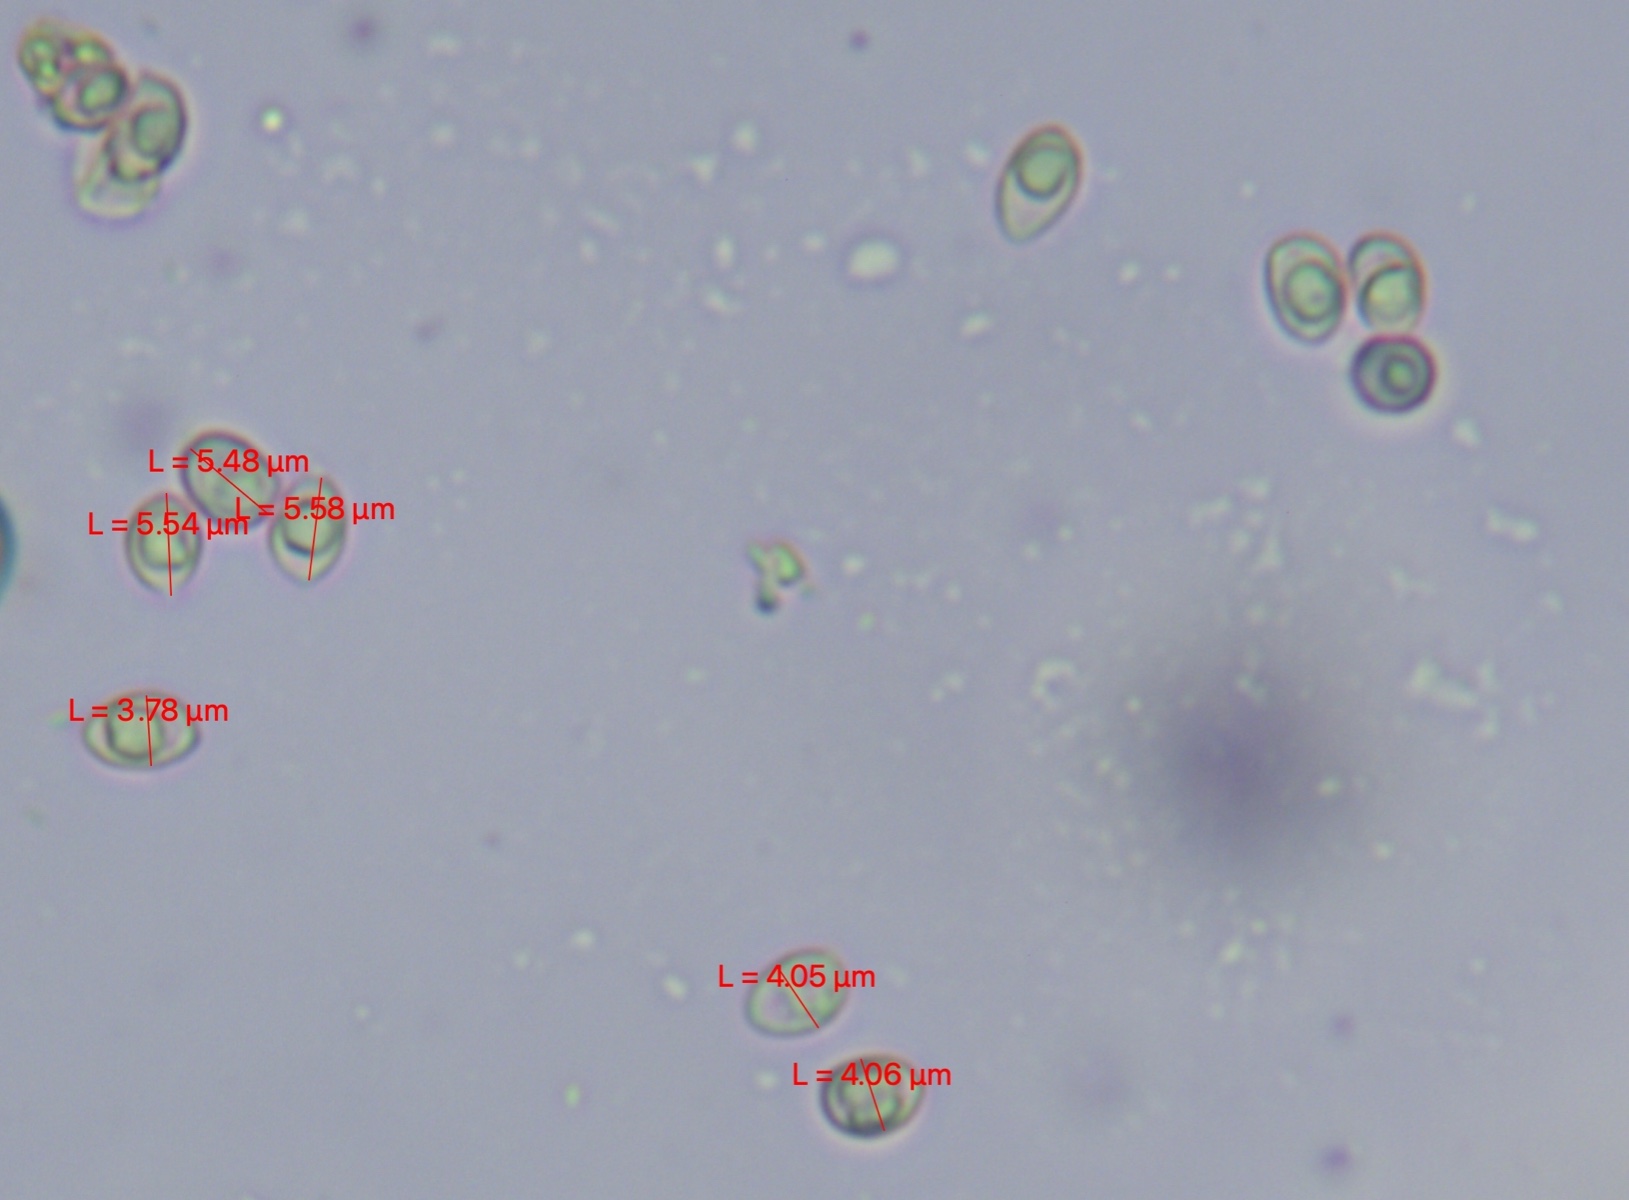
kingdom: Fungi
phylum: Basidiomycota
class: Agaricomycetes
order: Agaricales
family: Tubariaceae
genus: Tubaria
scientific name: Tubaria dispersa
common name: tjørne-fnughat
